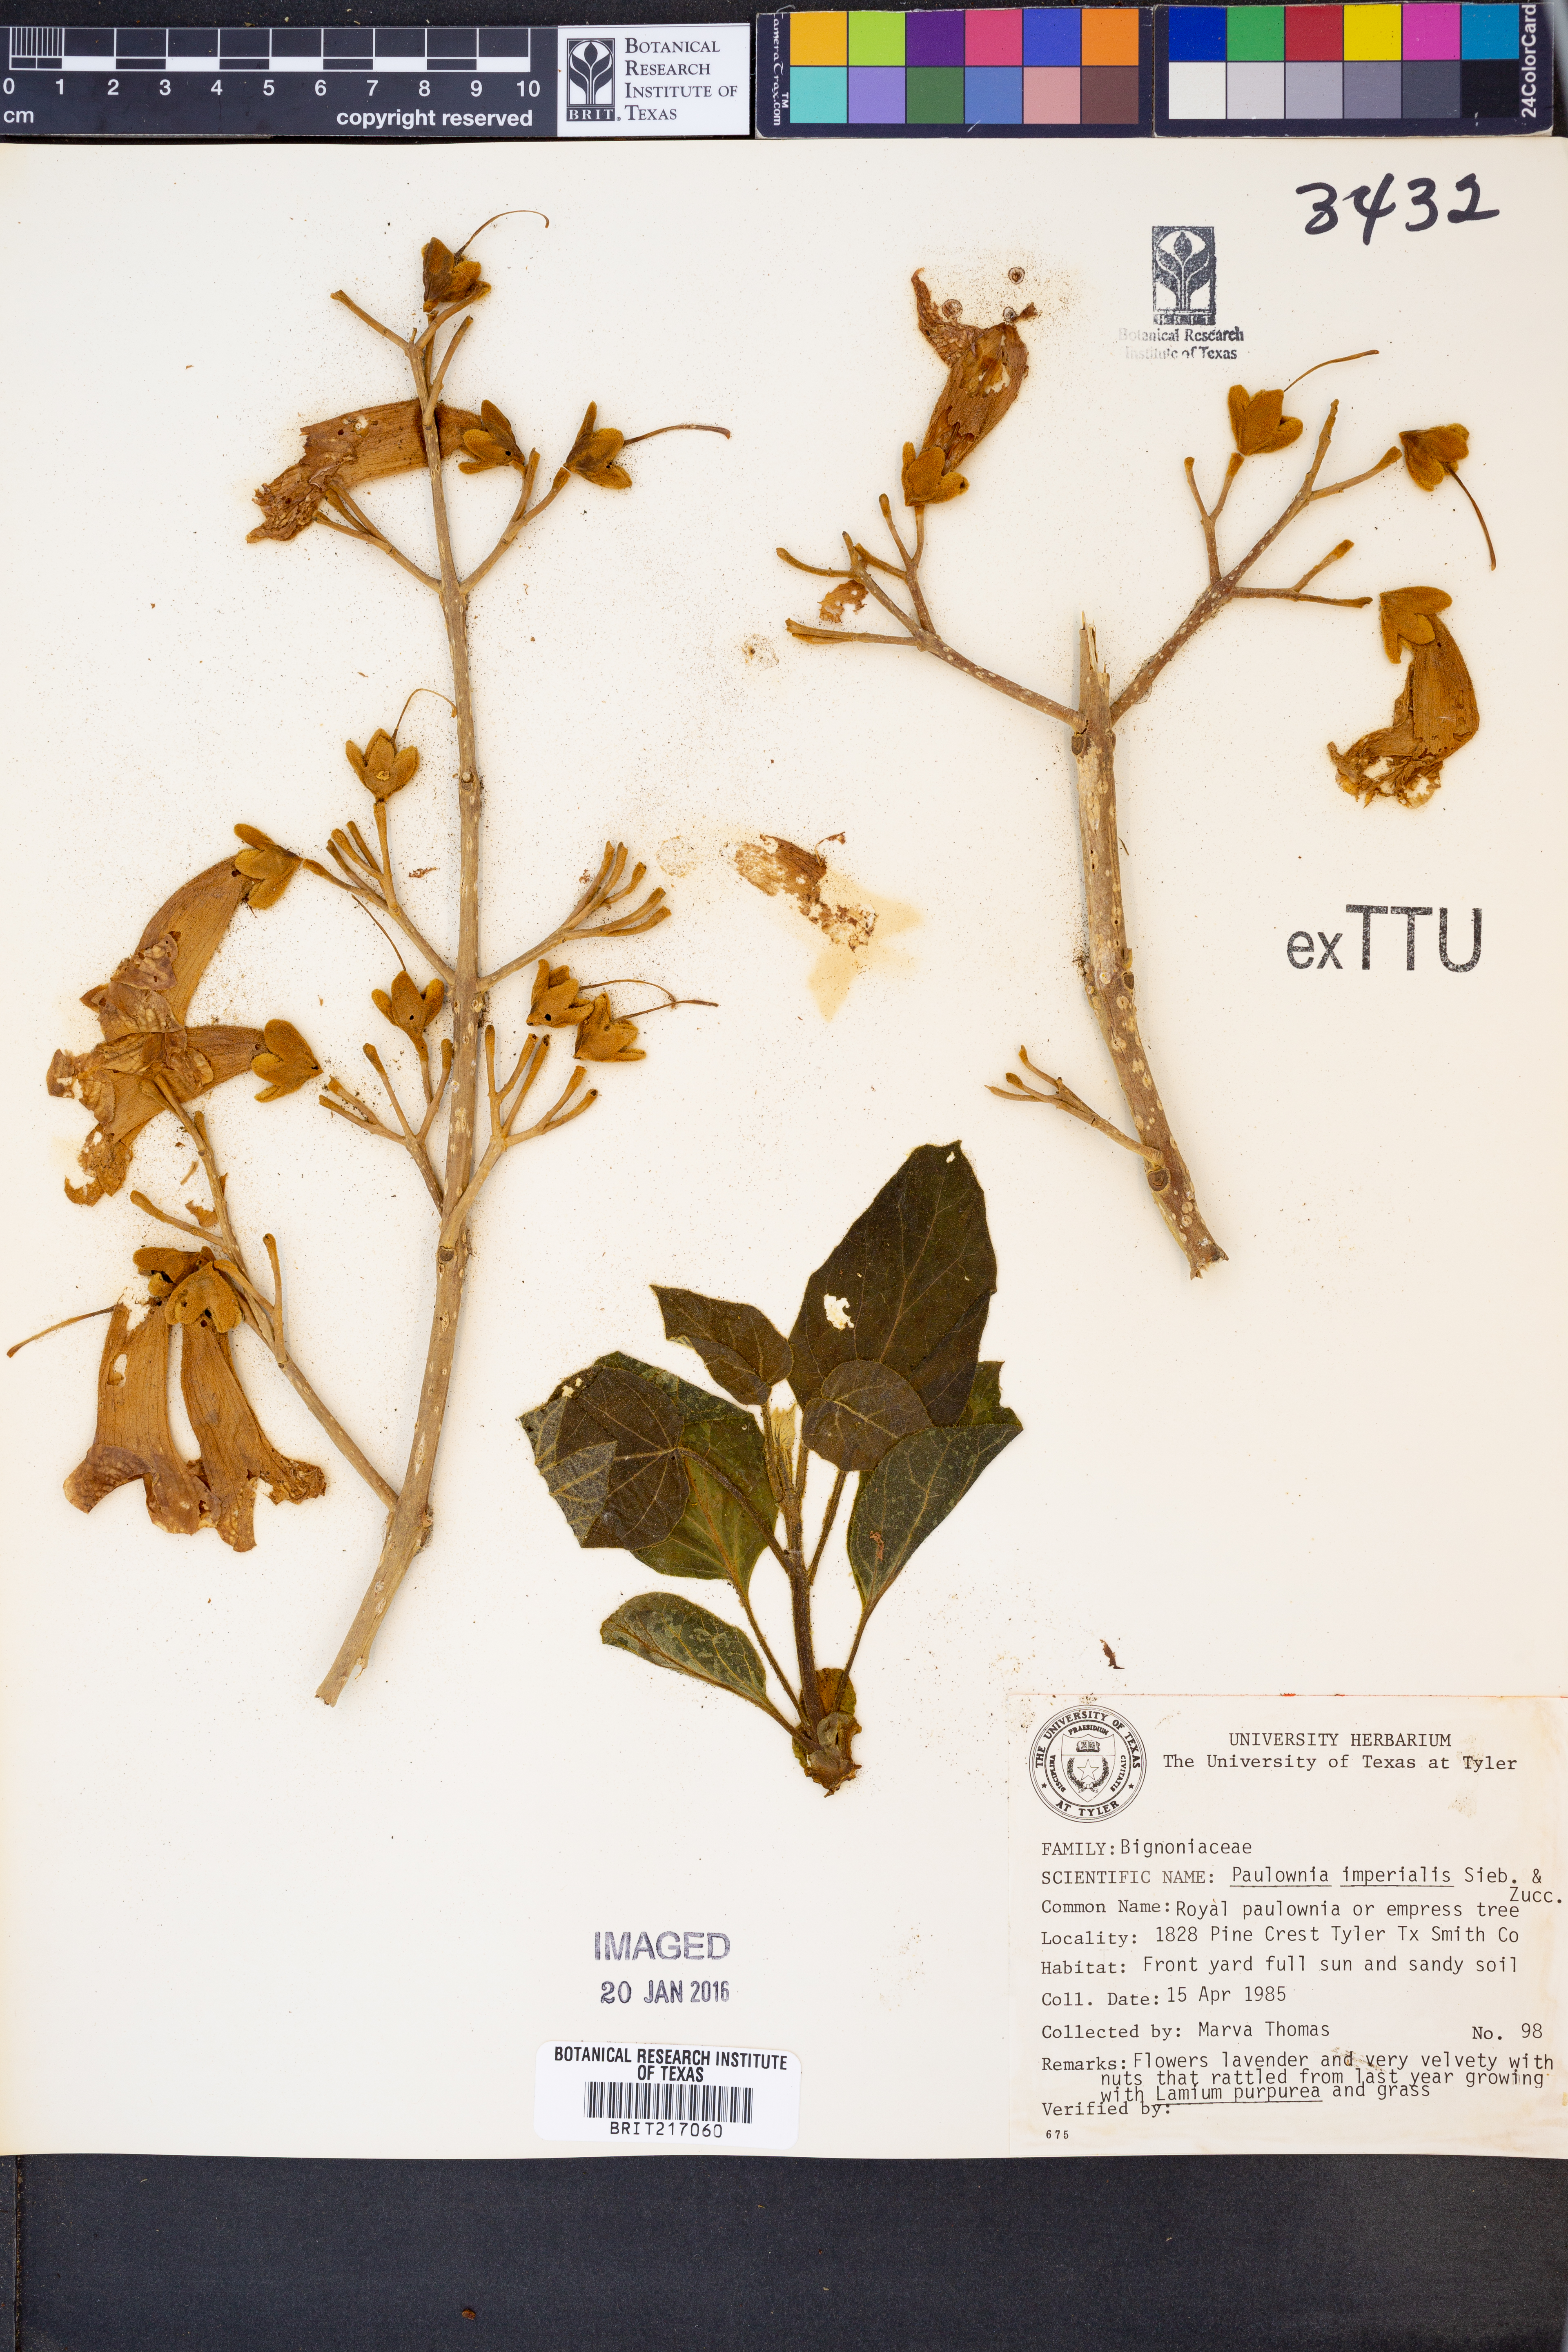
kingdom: Plantae
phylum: Tracheophyta
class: Magnoliopsida
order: Lamiales
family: Paulowniaceae
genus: Paulownia
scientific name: Paulownia tomentosa
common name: Foxglove-tree
